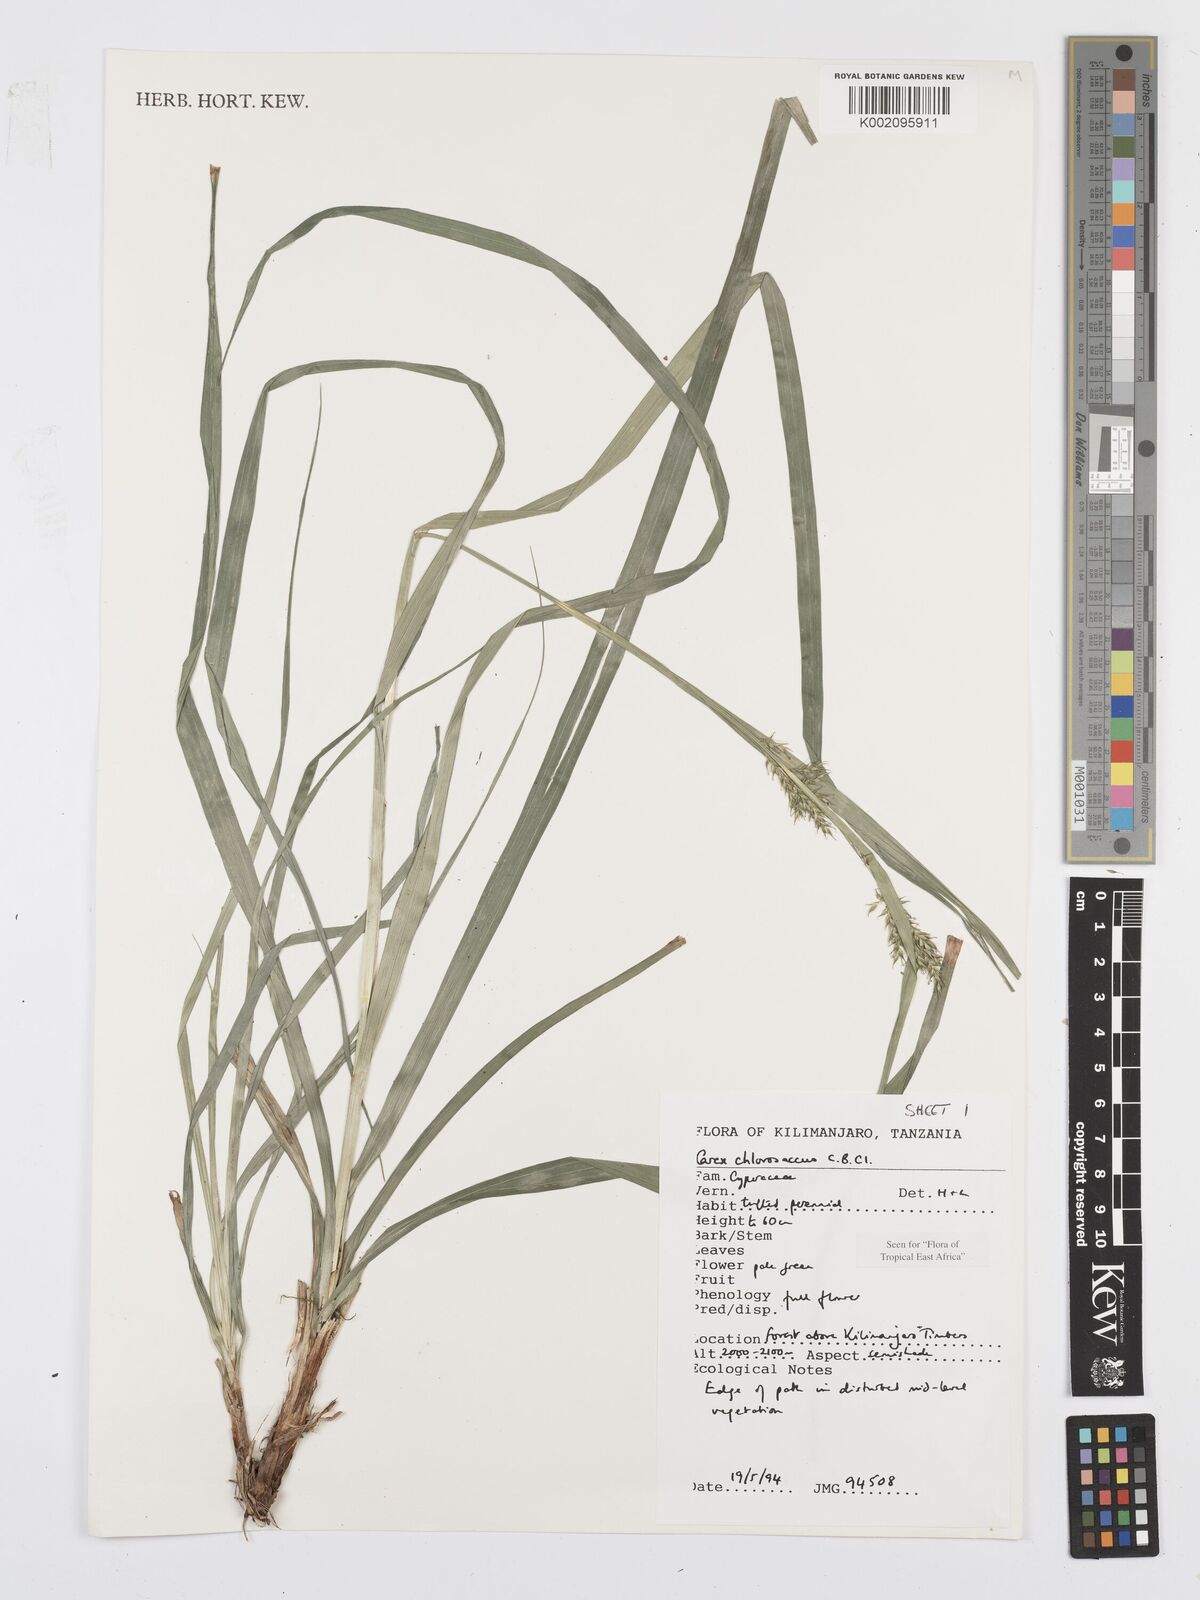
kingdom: Plantae
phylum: Tracheophyta
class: Liliopsida
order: Poales
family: Cyperaceae
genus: Carex
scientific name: Carex chlorosaccus
